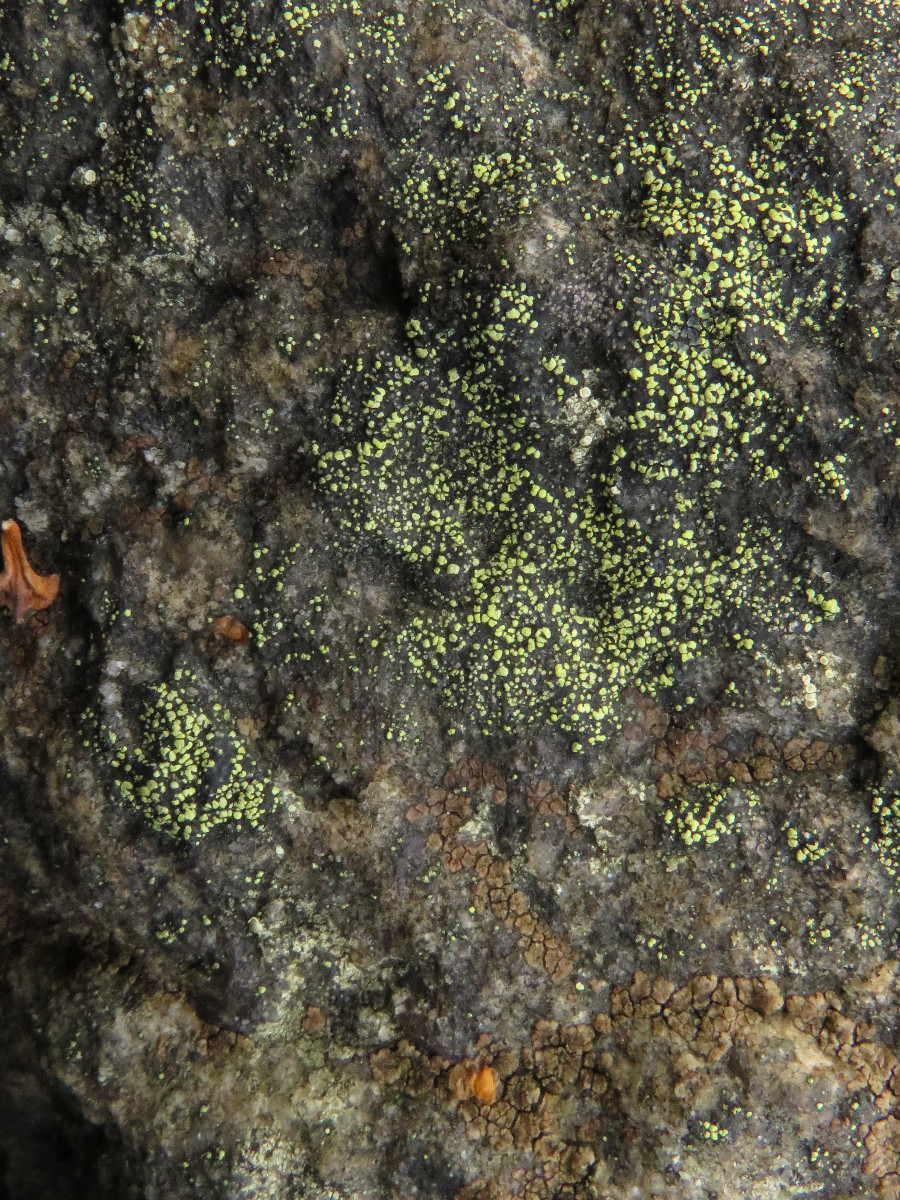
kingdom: Fungi
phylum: Ascomycota
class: Lecanoromycetes
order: Rhizocarpales
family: Rhizocarpaceae
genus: Rhizocarpon
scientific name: Rhizocarpon lecanorinum
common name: krave-landkortlav
